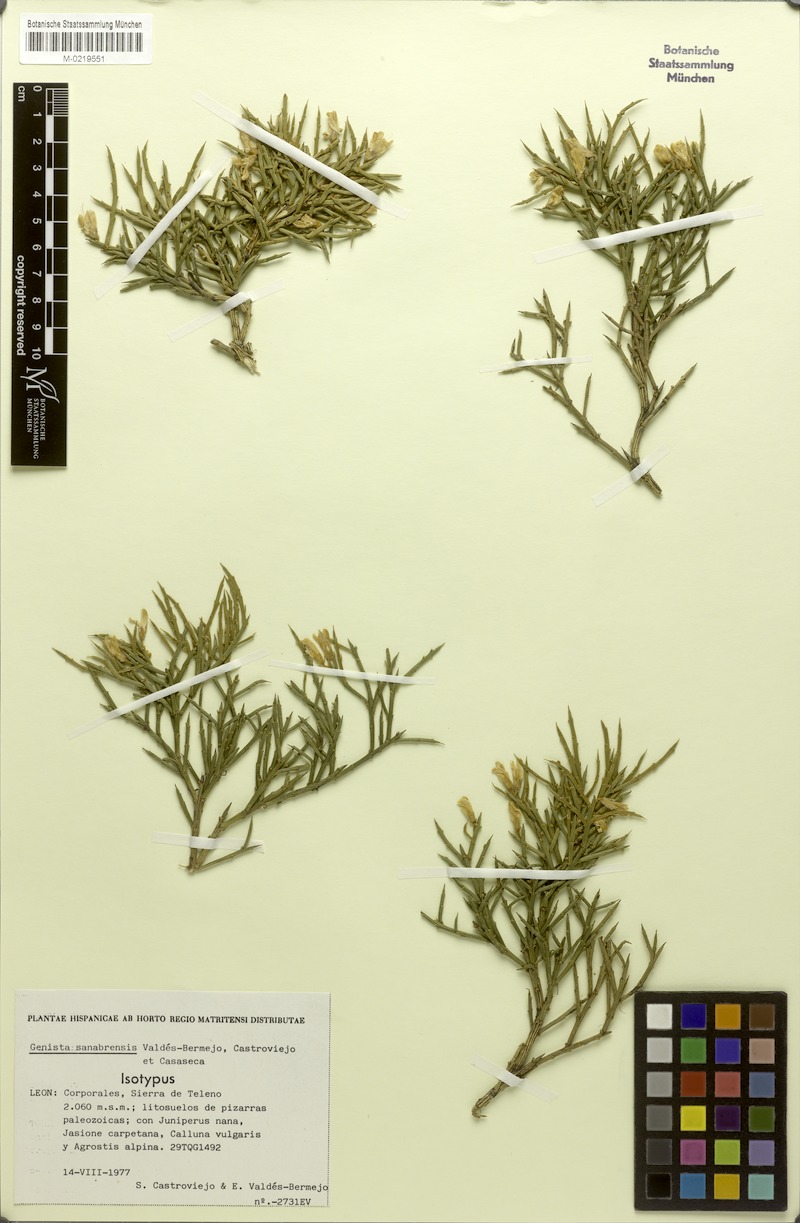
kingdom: Plantae
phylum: Tracheophyta
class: Magnoliopsida
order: Fabales
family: Fabaceae
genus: Genista
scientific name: Genista sanabrensis
